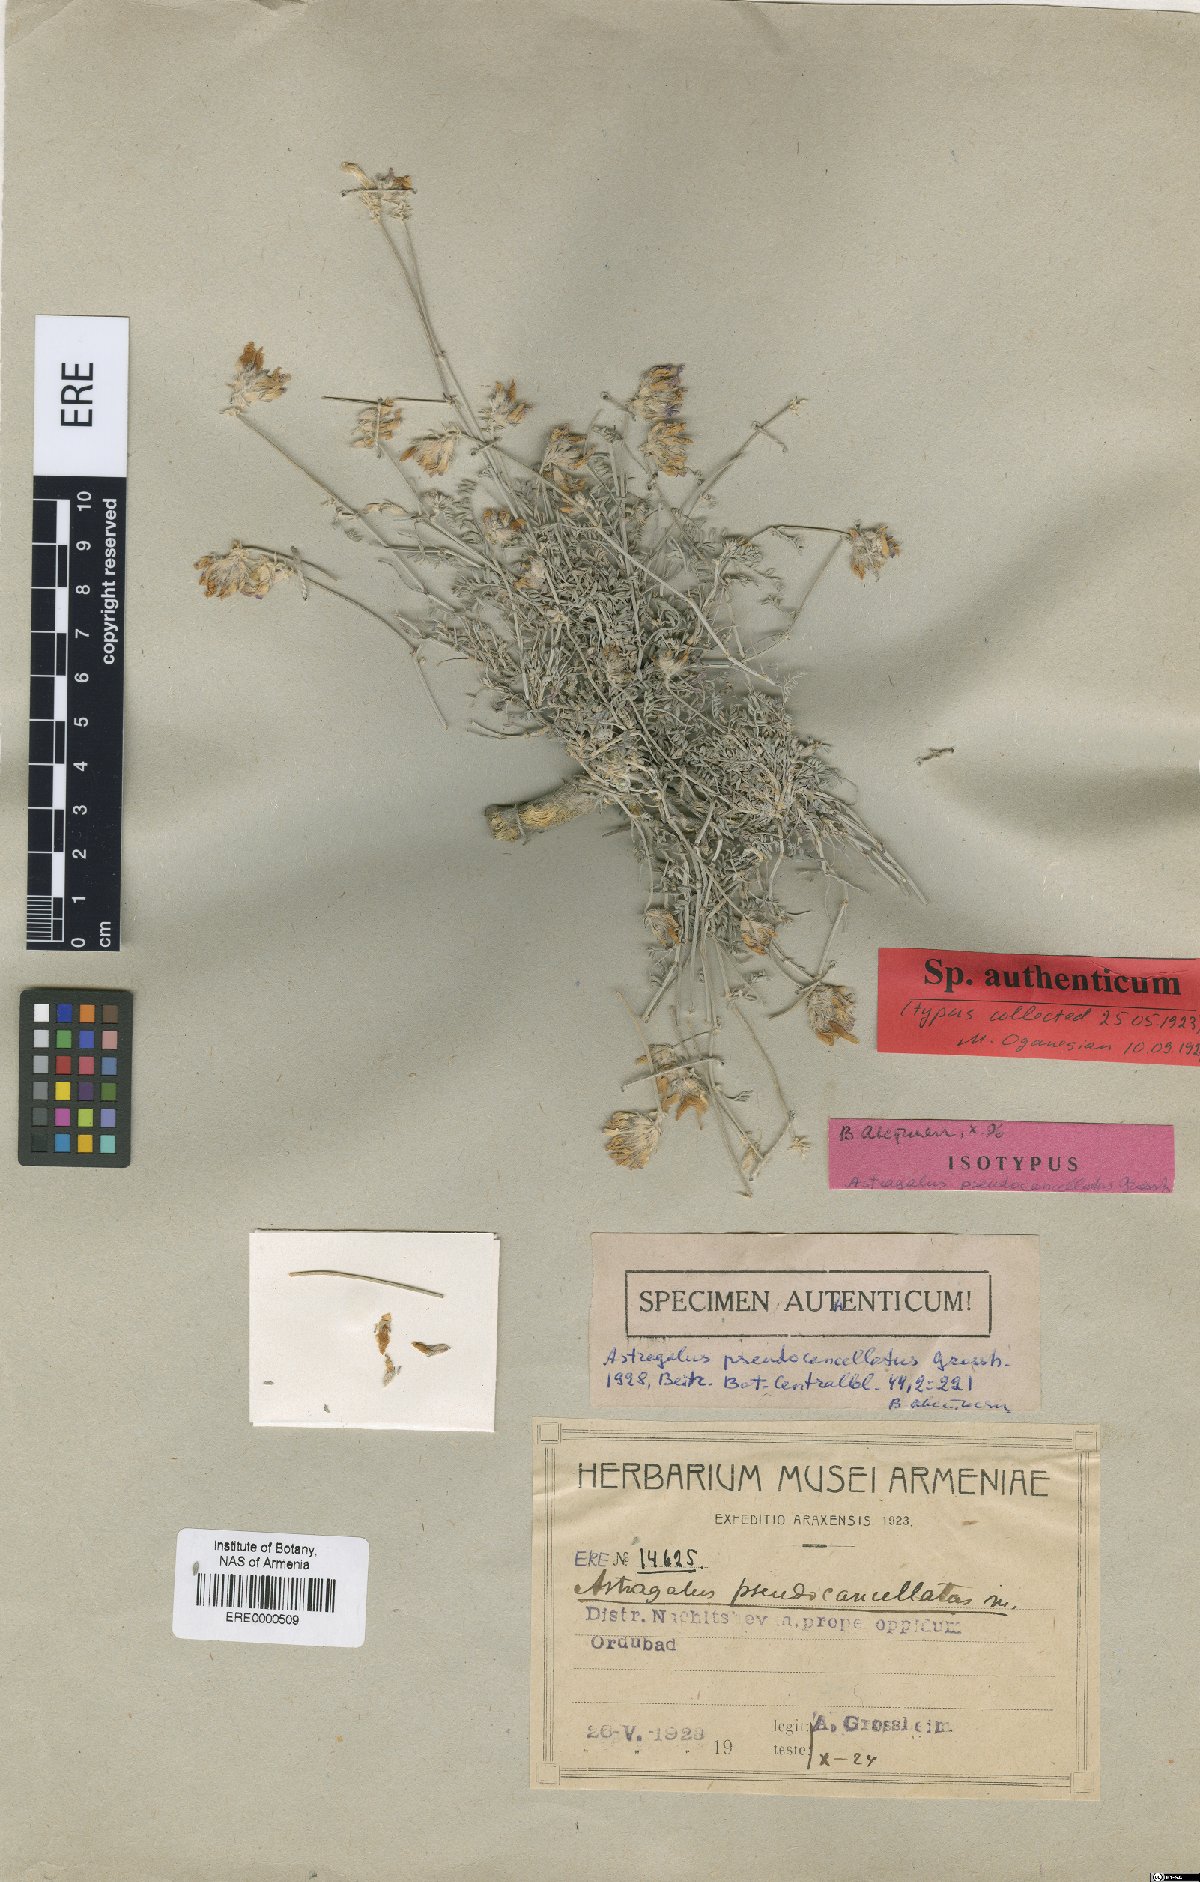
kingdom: Plantae
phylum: Tracheophyta
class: Magnoliopsida
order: Fabales
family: Fabaceae
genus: Astragalus
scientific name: Astragalus cancellatus
